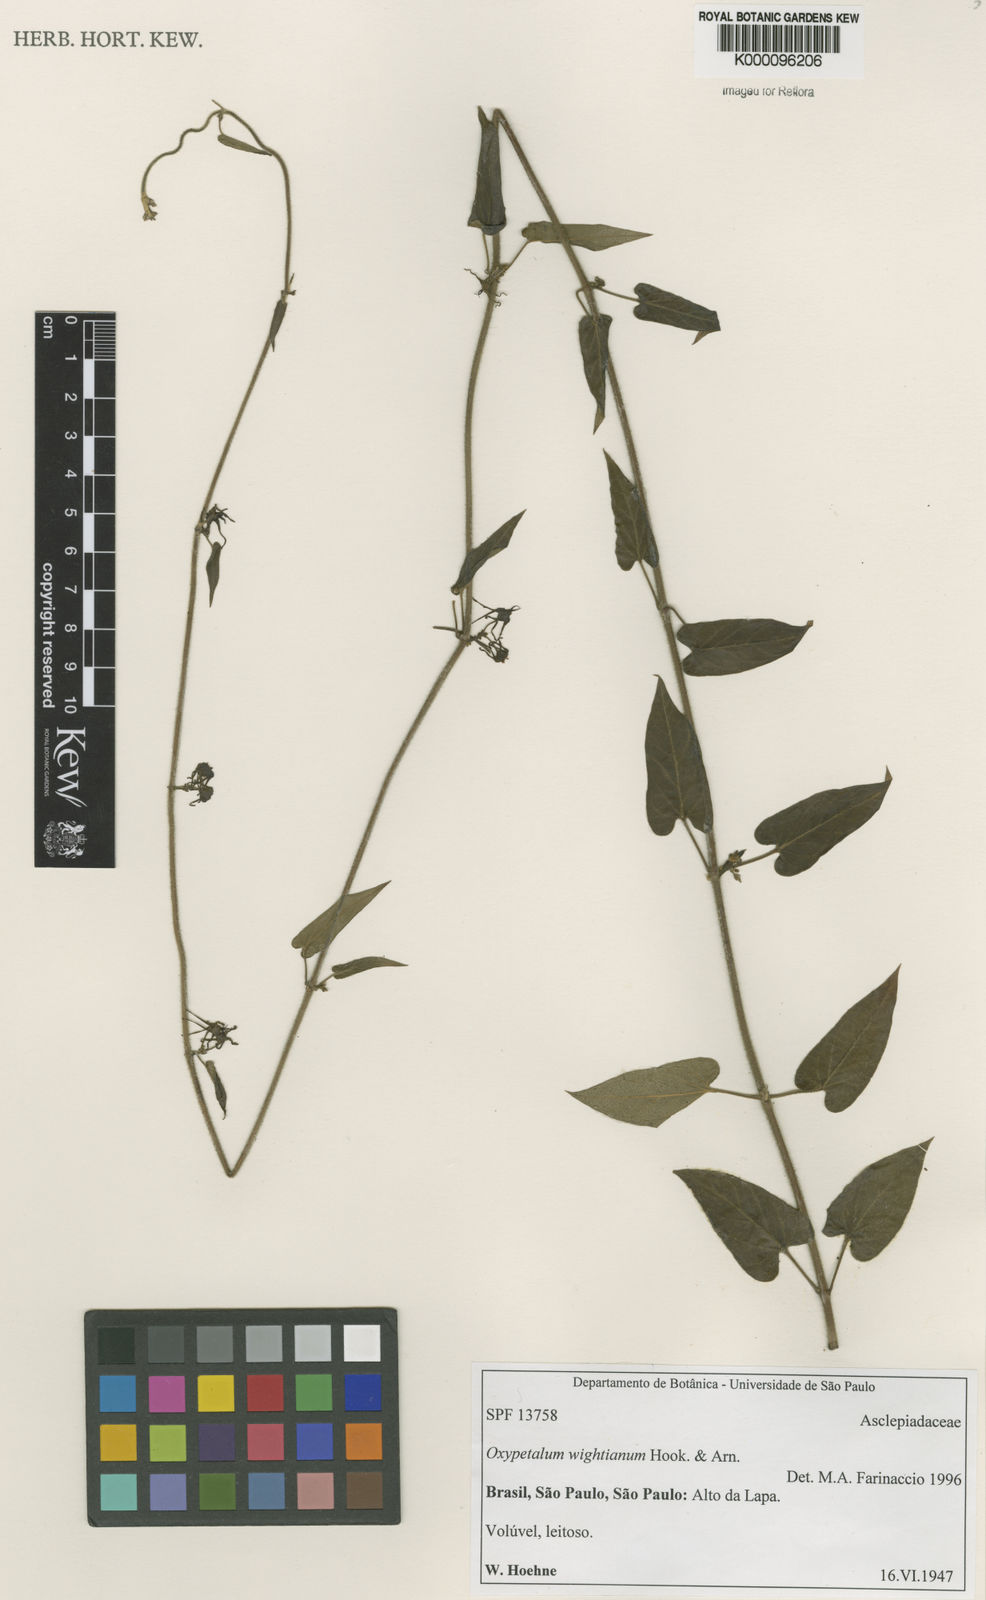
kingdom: Plantae
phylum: Tracheophyta
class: Magnoliopsida
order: Gentianales
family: Apocynaceae
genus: Oxypetalum
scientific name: Oxypetalum wightianum
